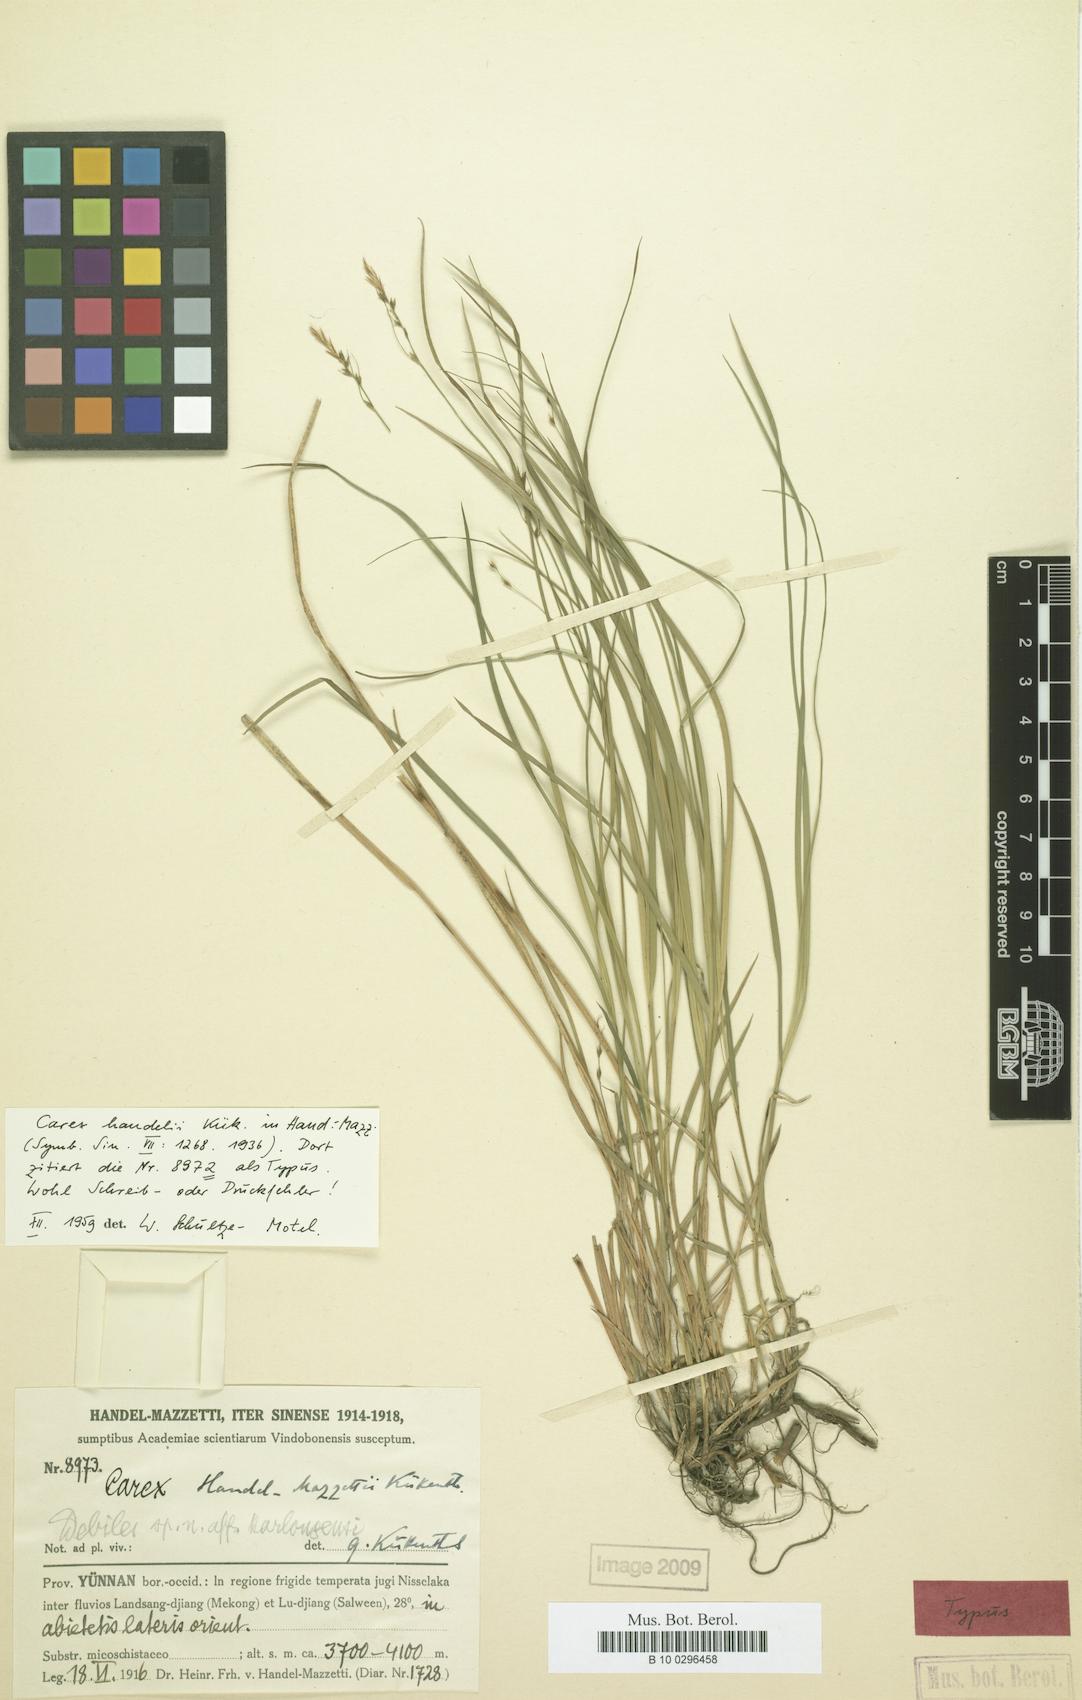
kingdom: Plantae
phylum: Tracheophyta
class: Liliopsida
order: Poales
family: Cyperaceae
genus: Carex
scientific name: Carex handelii
